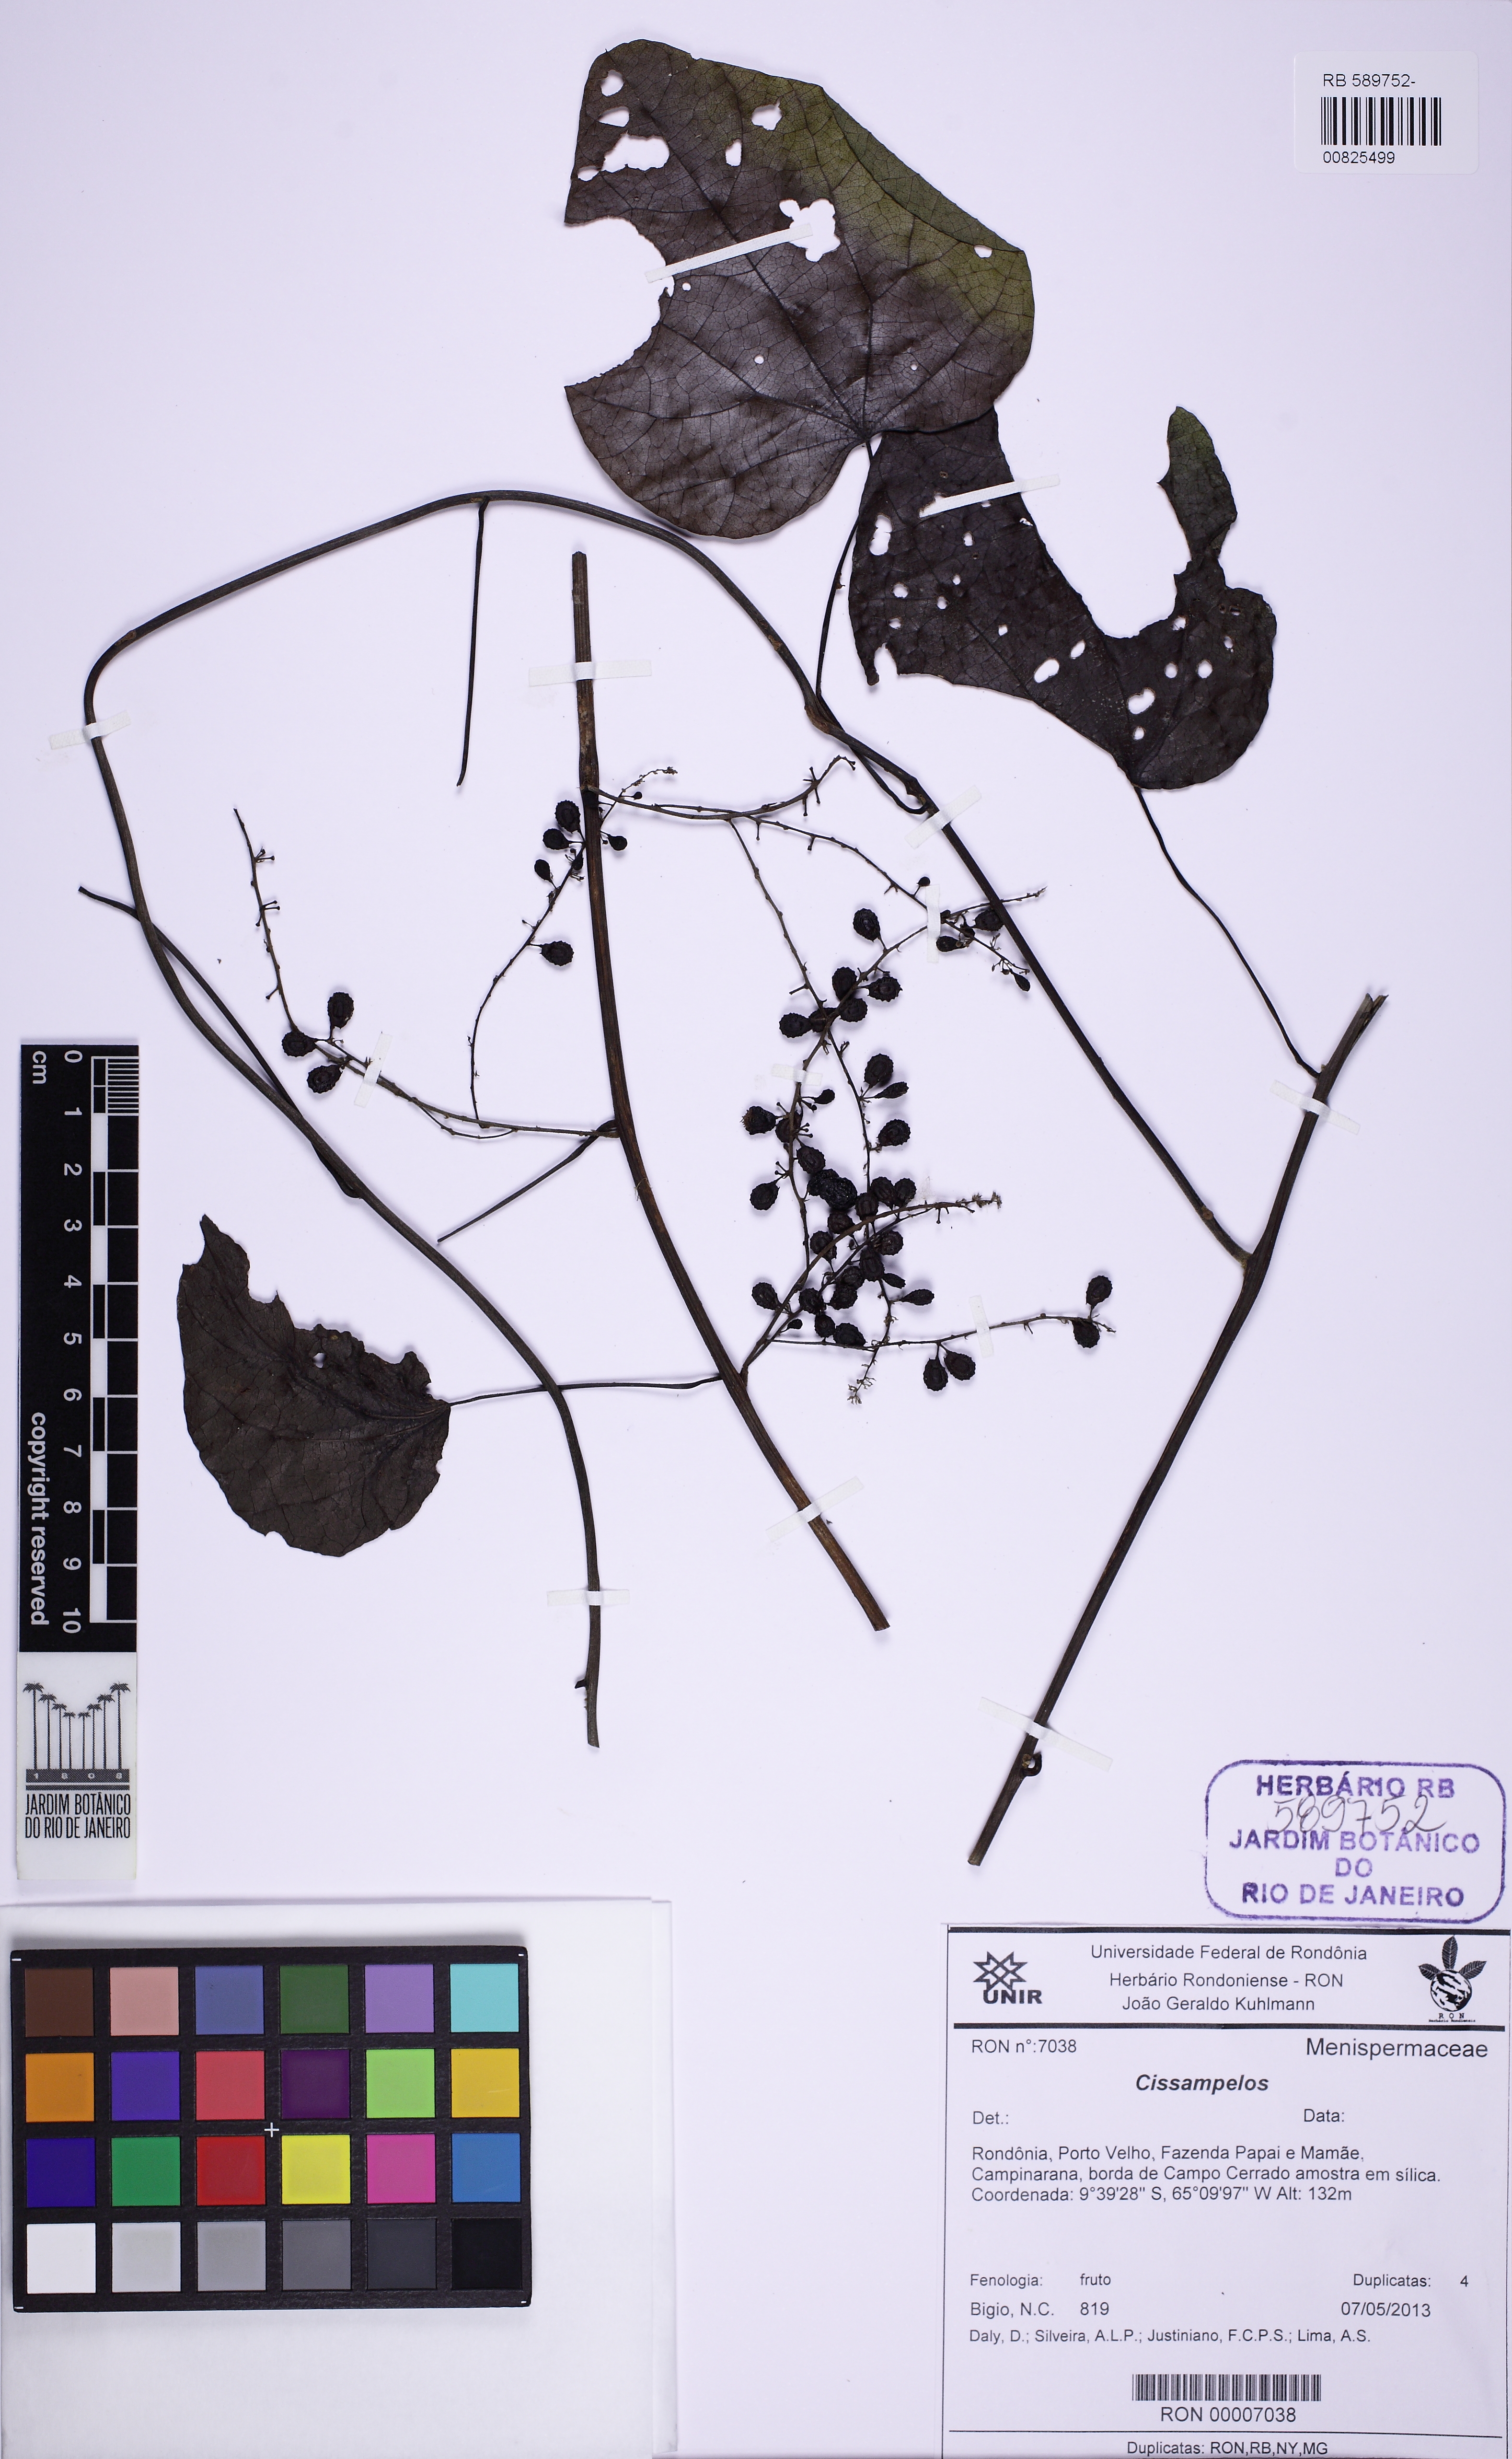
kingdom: Plantae
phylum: Tracheophyta
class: Magnoliopsida
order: Ranunculales
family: Menispermaceae
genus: Cissampelos
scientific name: Cissampelos
